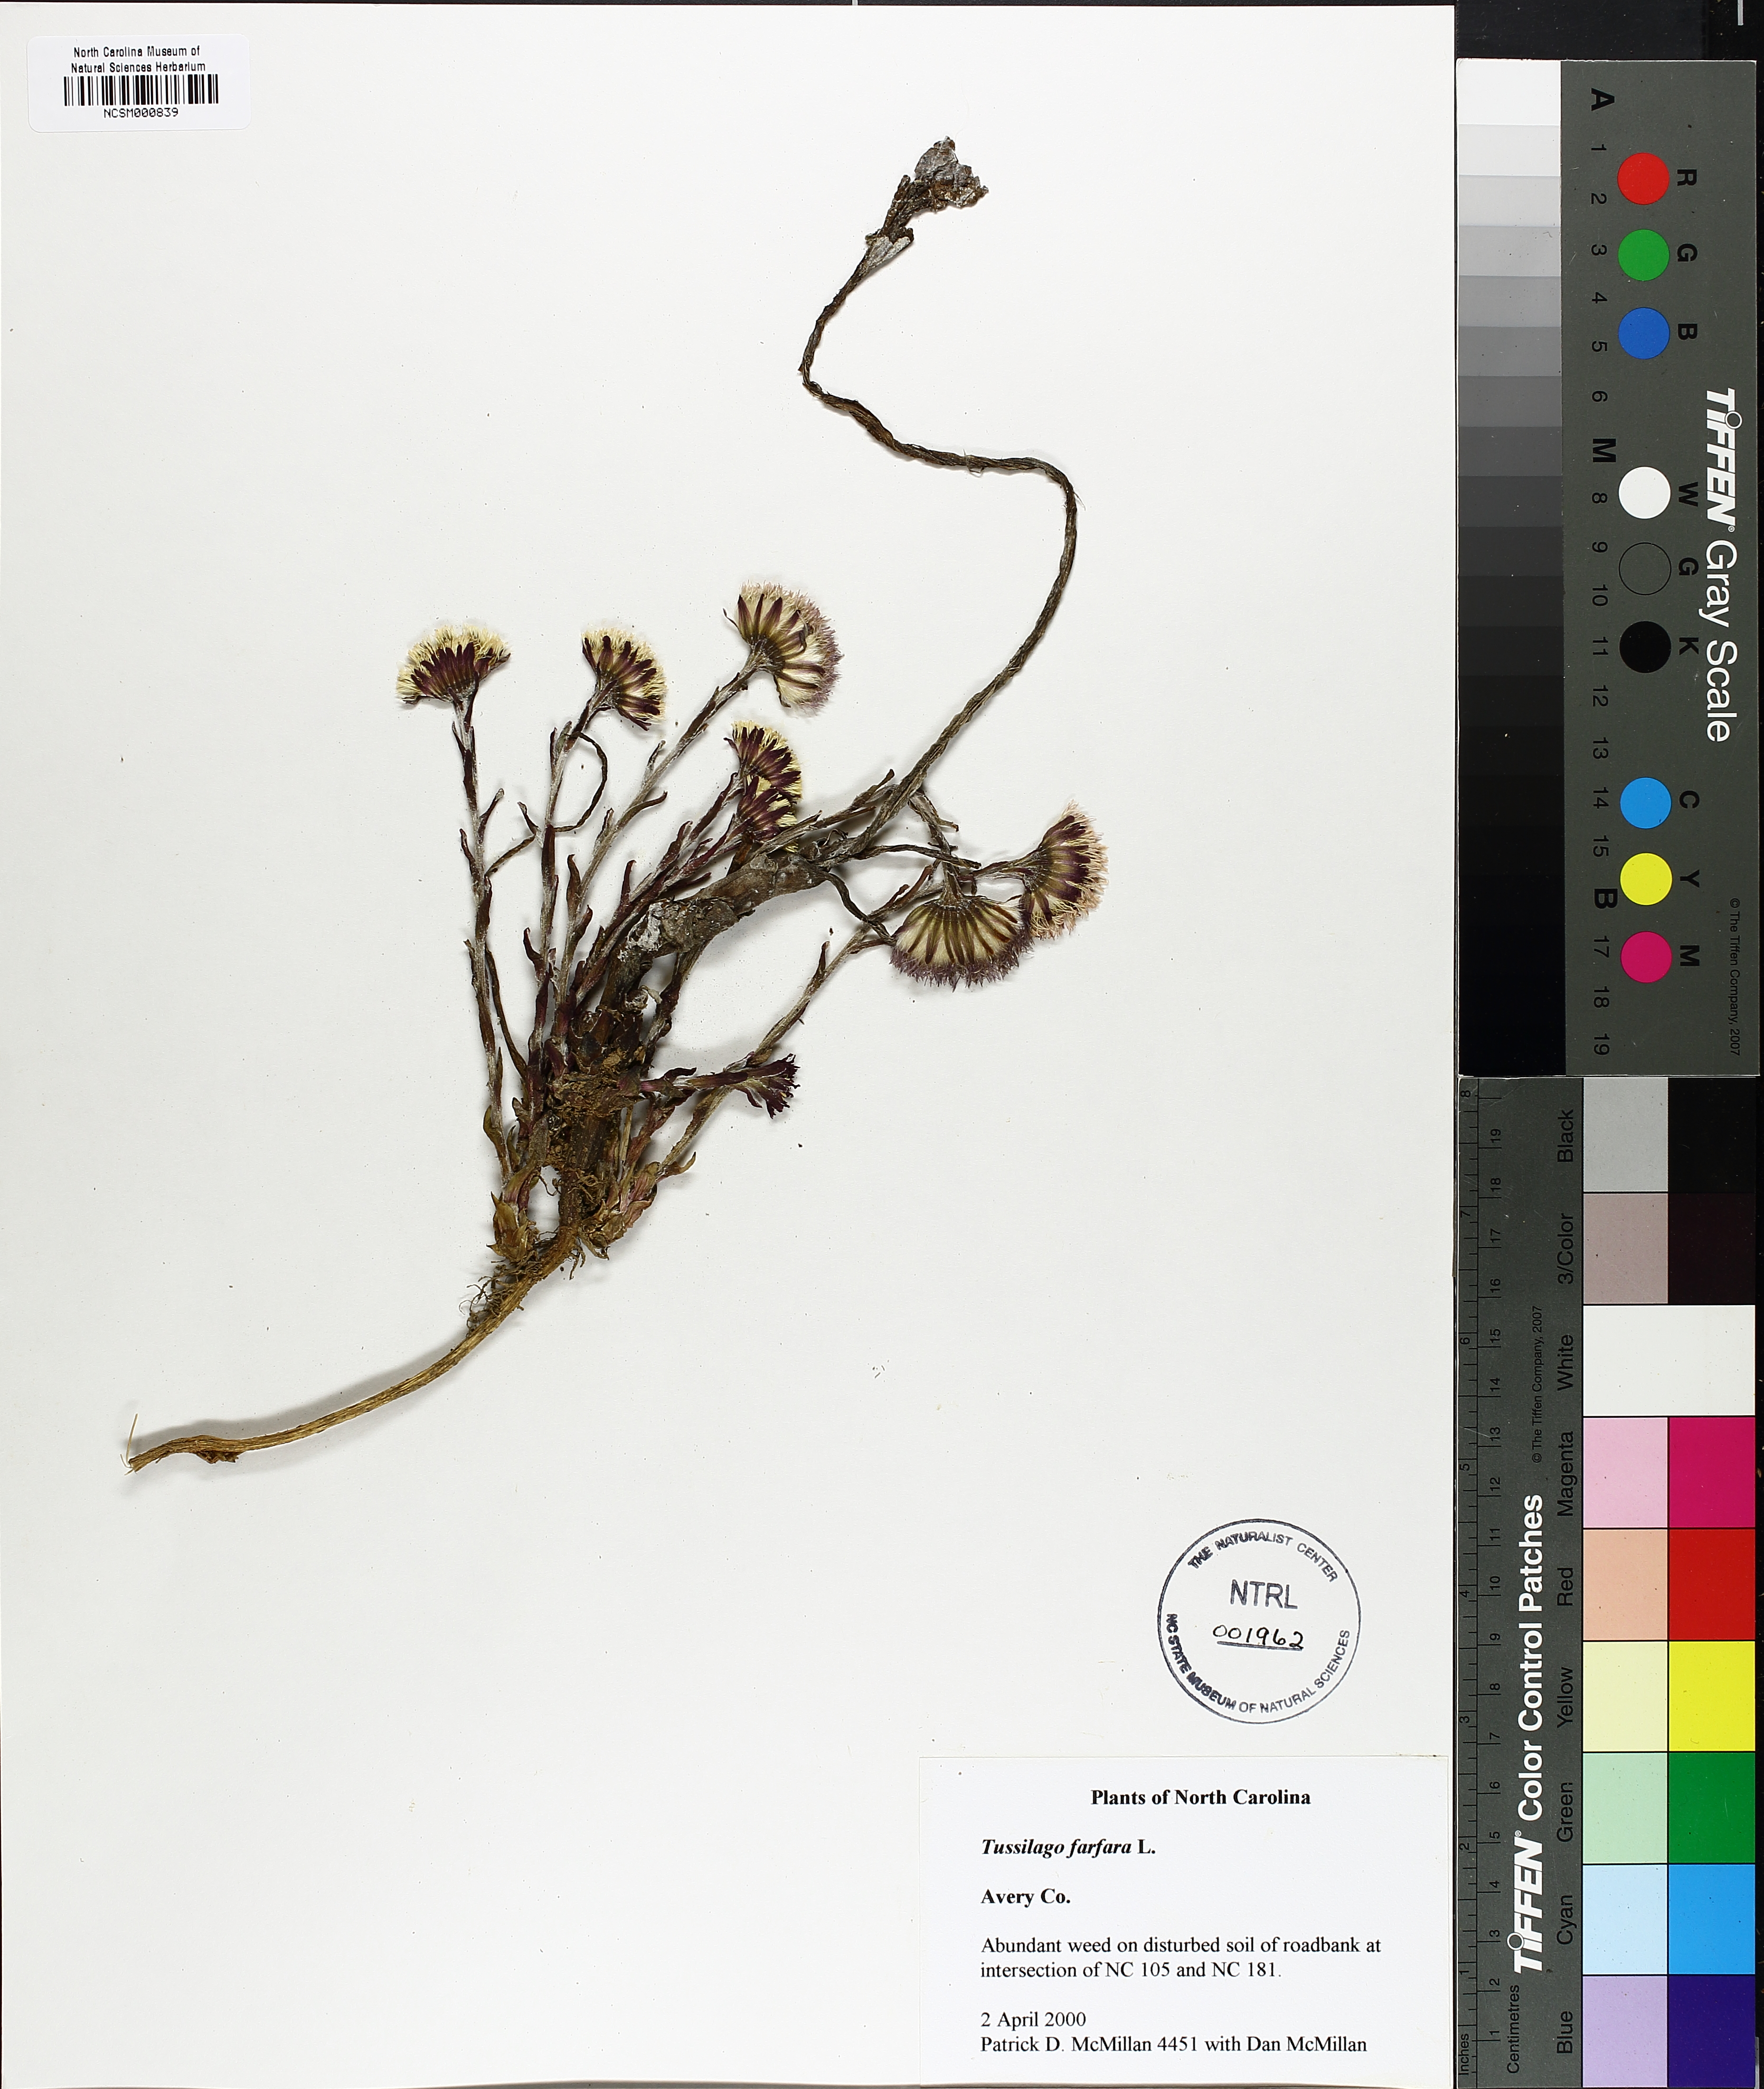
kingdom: Plantae
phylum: Tracheophyta
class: Magnoliopsida
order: Asterales
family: Asteraceae
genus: Tussilago
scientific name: Tussilago farfara
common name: Coltsfoot
